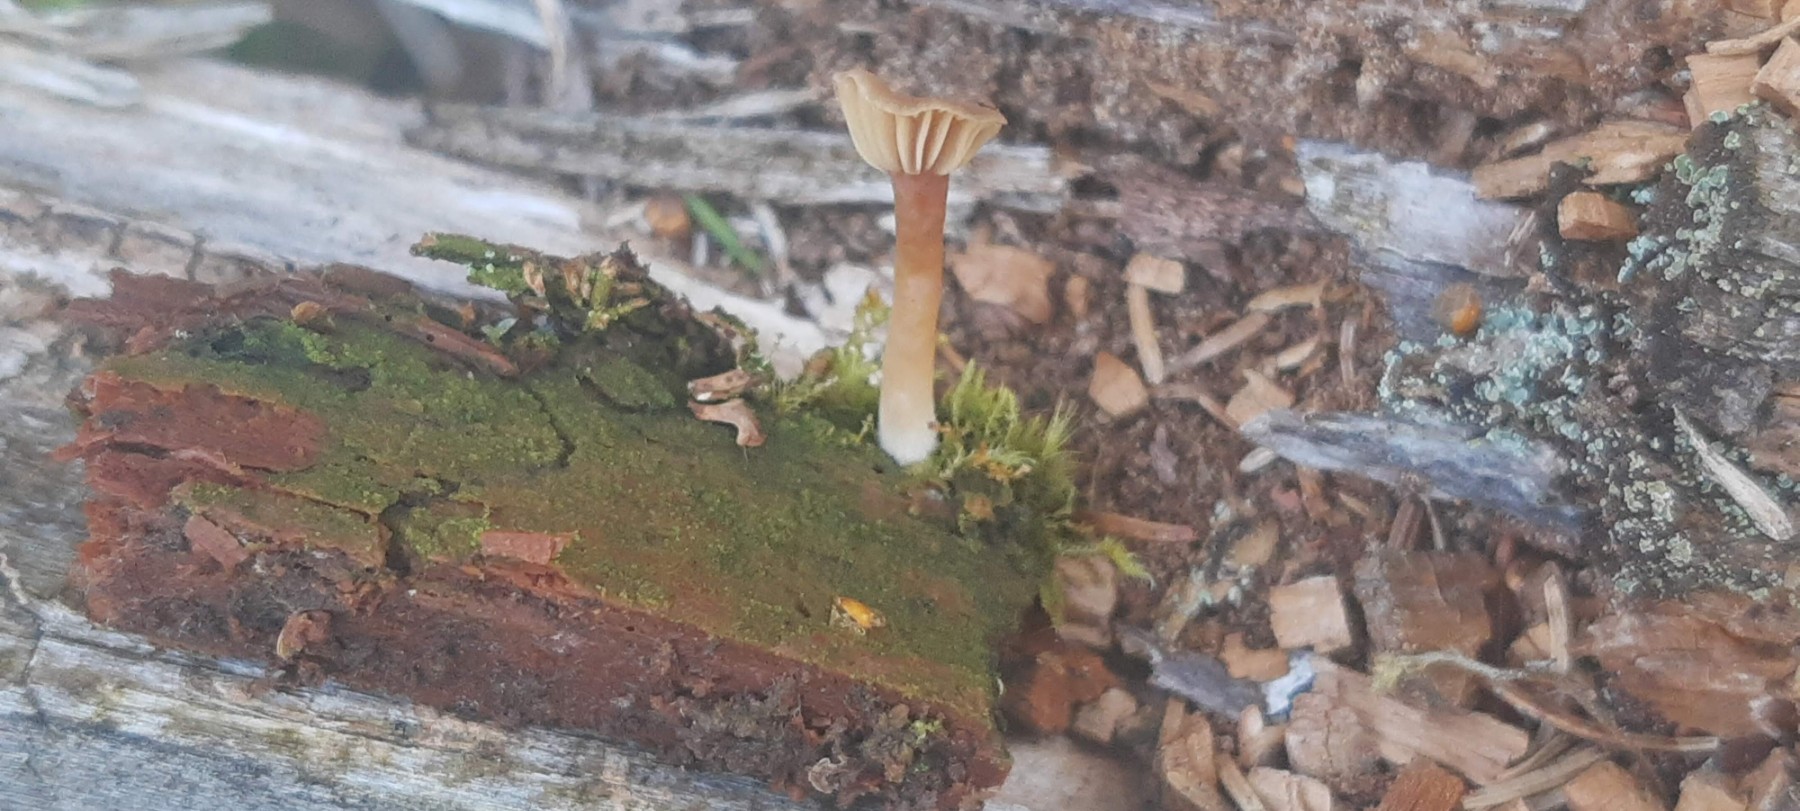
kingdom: Fungi
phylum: Basidiomycota
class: Agaricomycetes
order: Agaricales
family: Hygrophoraceae
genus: Lichenomphalia
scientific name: Lichenomphalia umbellifera
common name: tørve-lavhat
